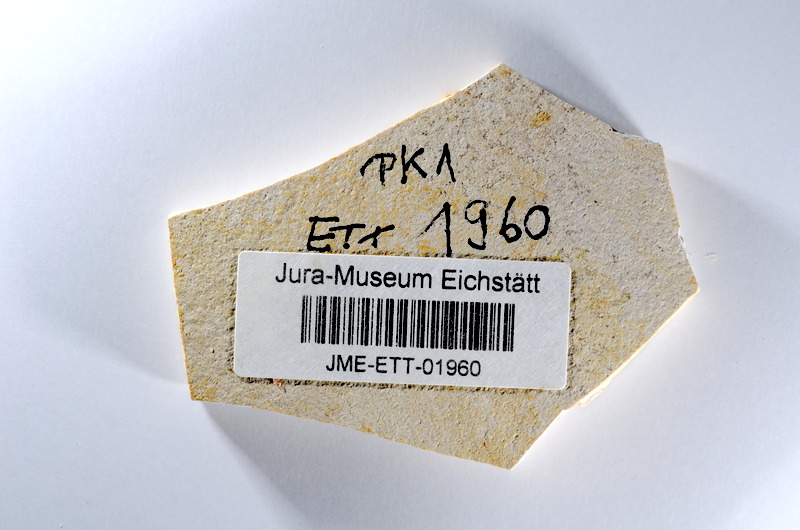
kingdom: Animalia
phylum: Chordata
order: Salmoniformes
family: Orthogonikleithridae
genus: Orthogonikleithrus
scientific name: Orthogonikleithrus hoelli
